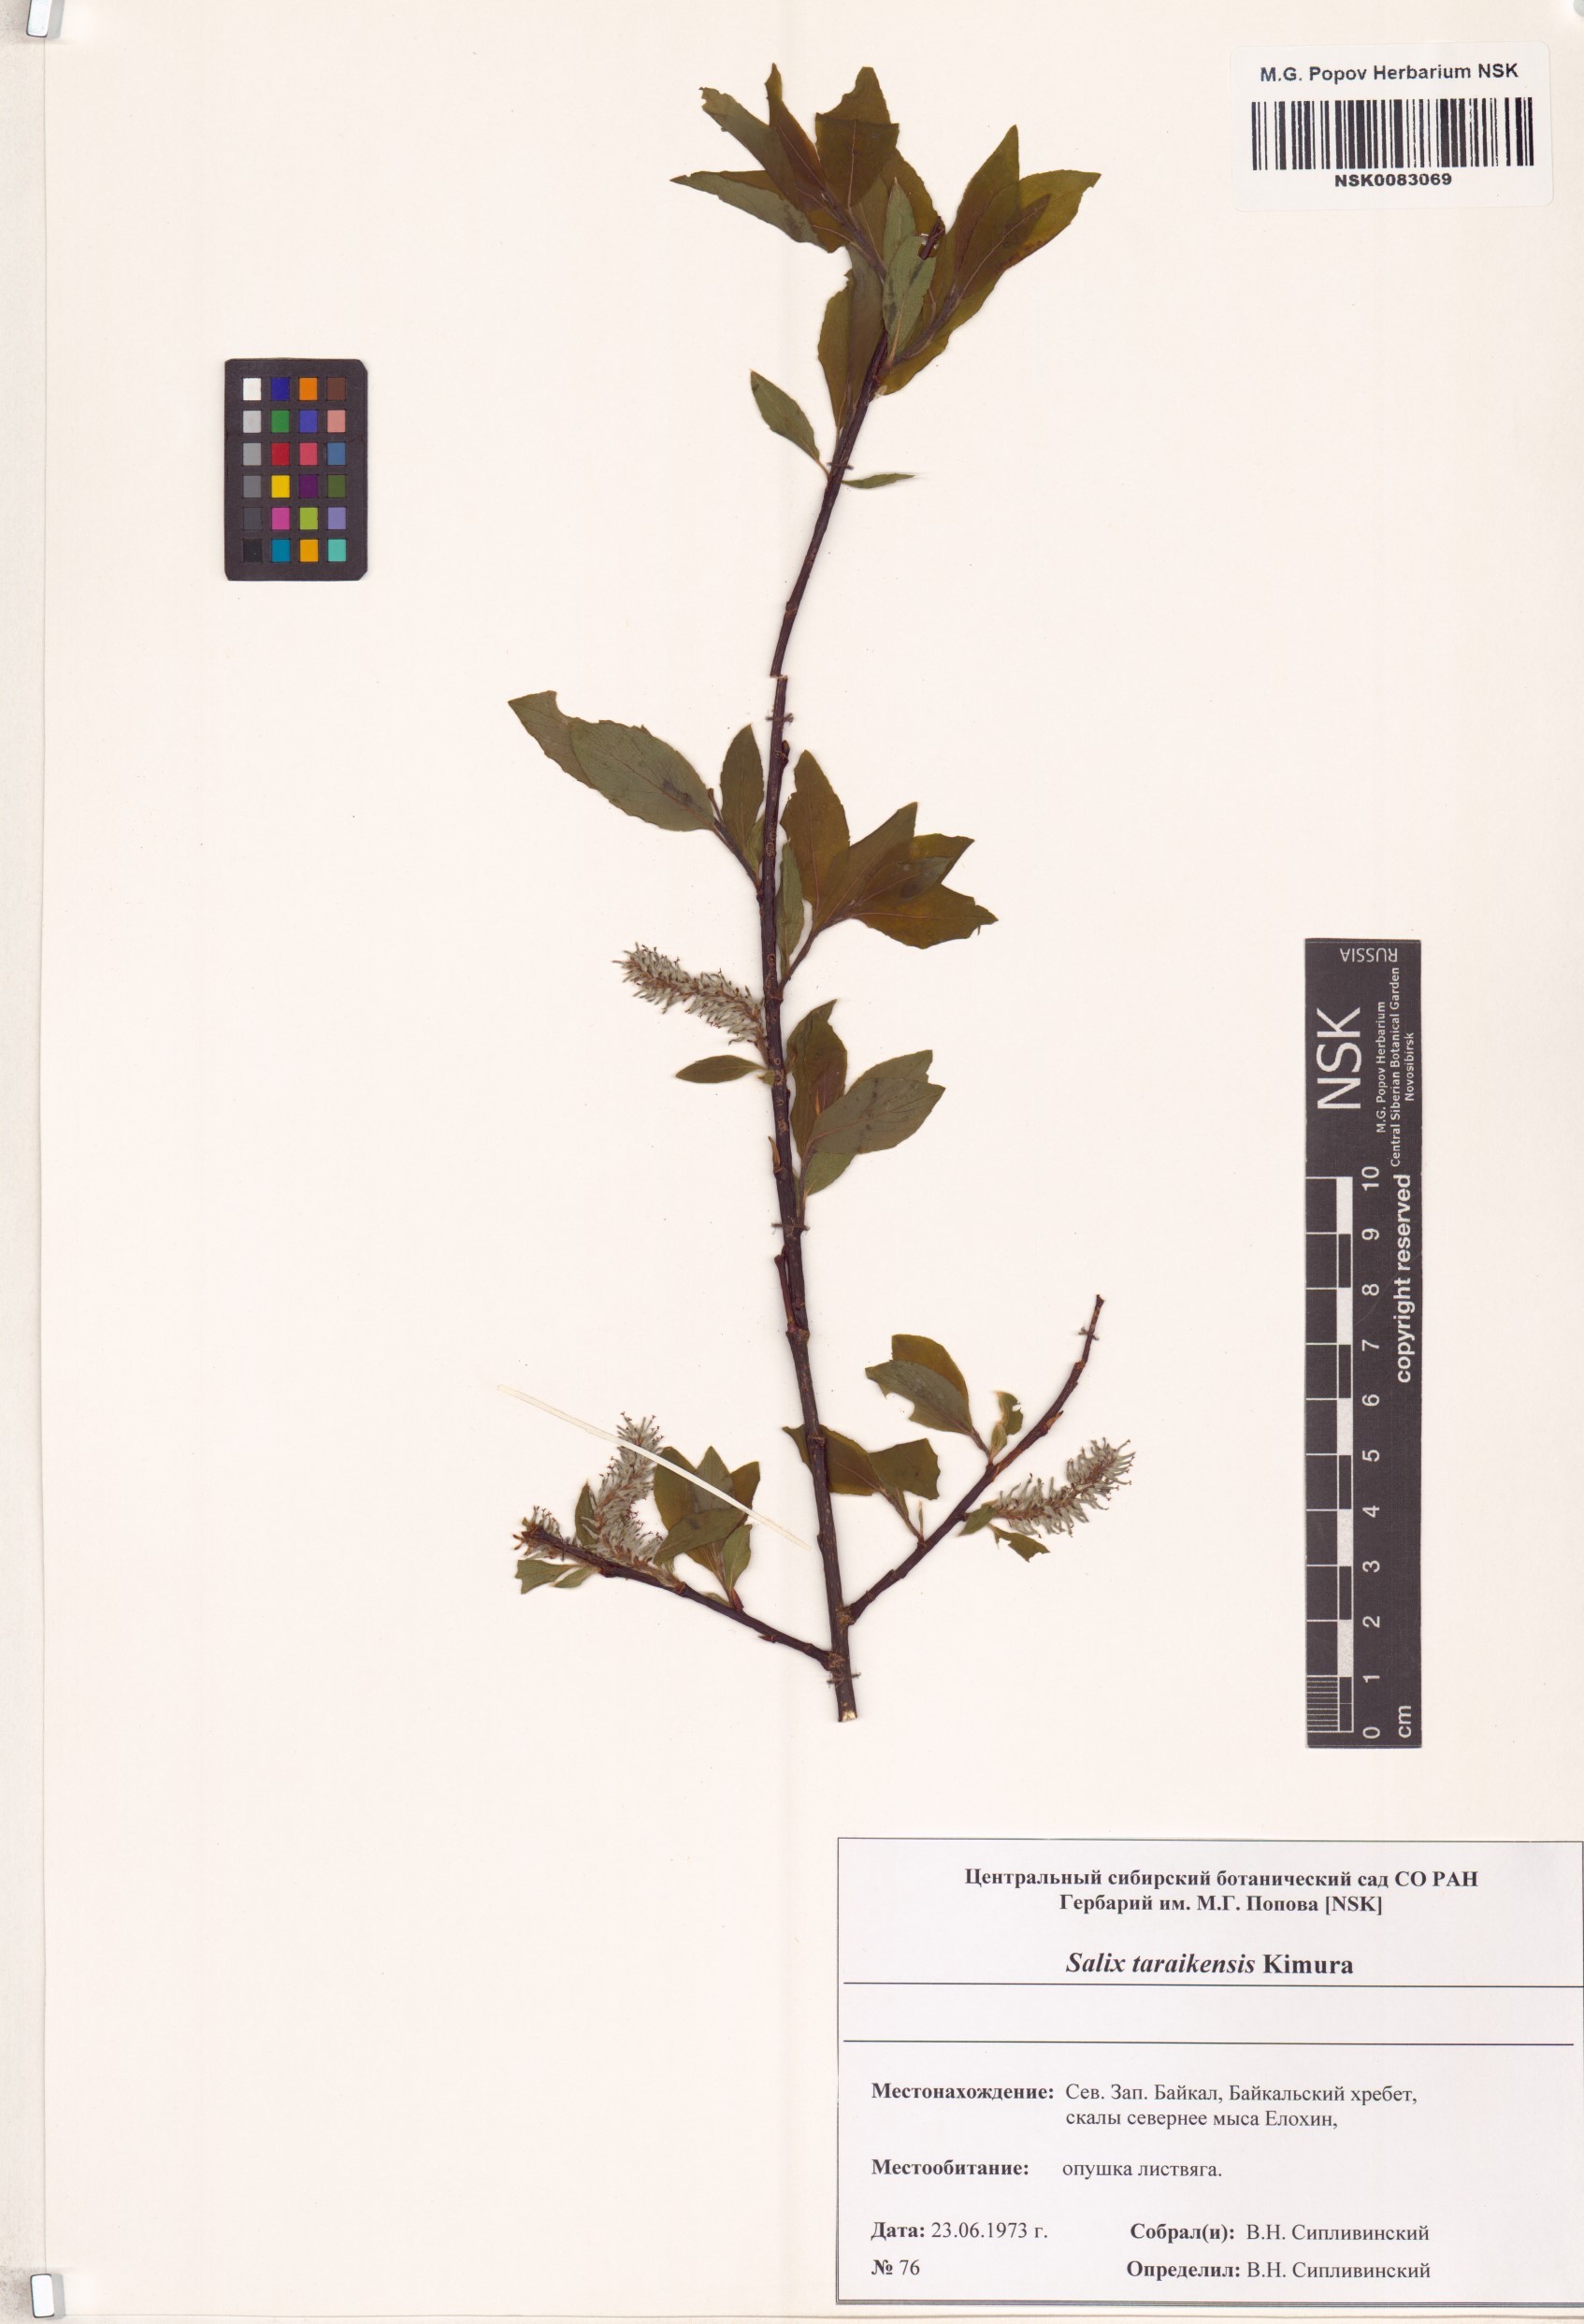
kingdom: Plantae
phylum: Tracheophyta
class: Magnoliopsida
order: Malpighiales
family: Salicaceae
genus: Salix
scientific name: Salix taraikensis
